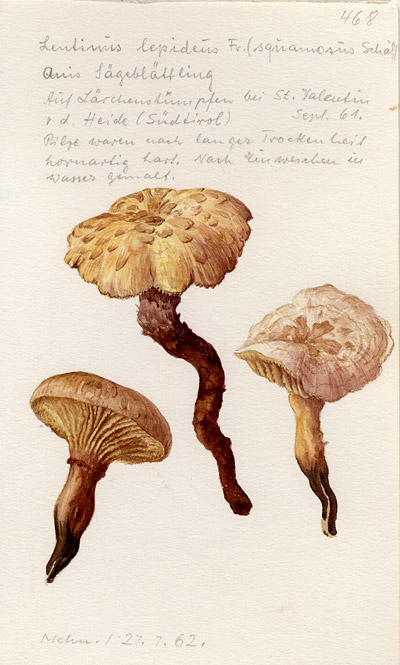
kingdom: Fungi
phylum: Basidiomycota
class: Agaricomycetes
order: Gloeophyllales
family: Gloeophyllaceae
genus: Neolentinus
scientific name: Neolentinus lepideus
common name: Scaly sawgill
